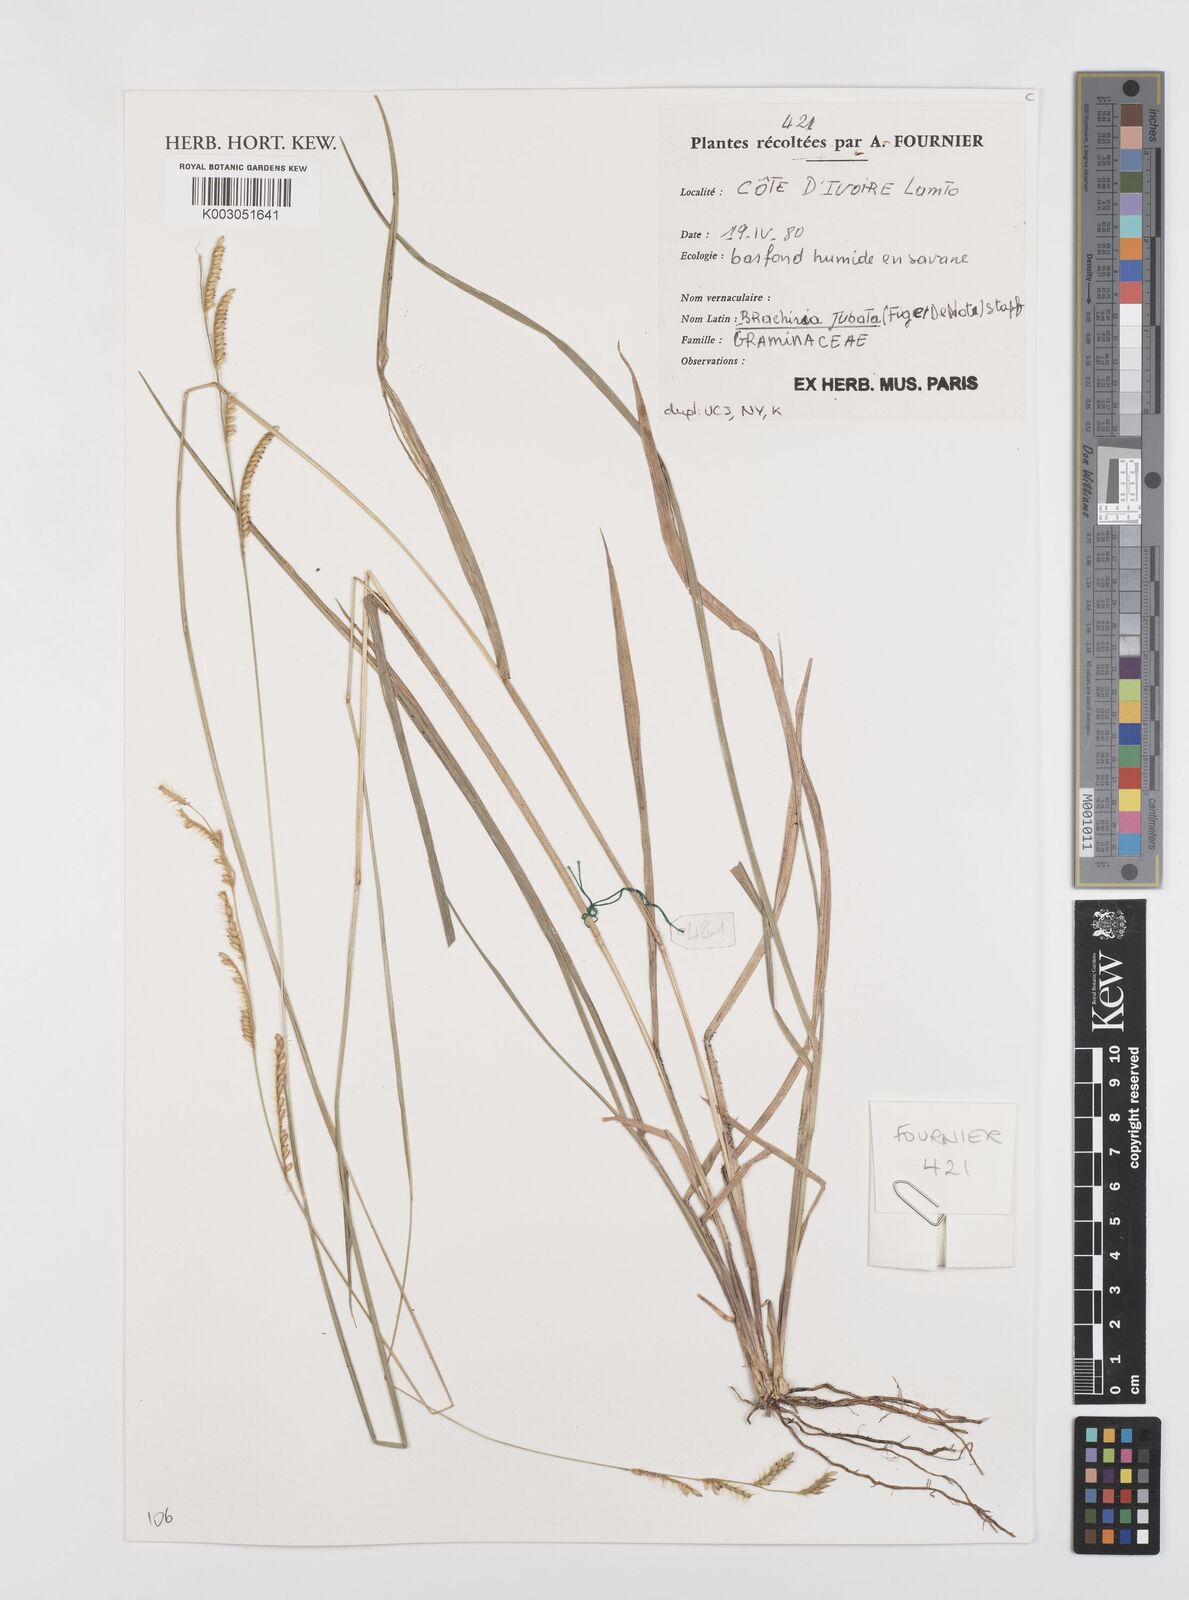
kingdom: Plantae
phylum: Tracheophyta
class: Liliopsida
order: Poales
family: Poaceae
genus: Urochloa
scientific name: Urochloa jubata
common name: Buffalograss
